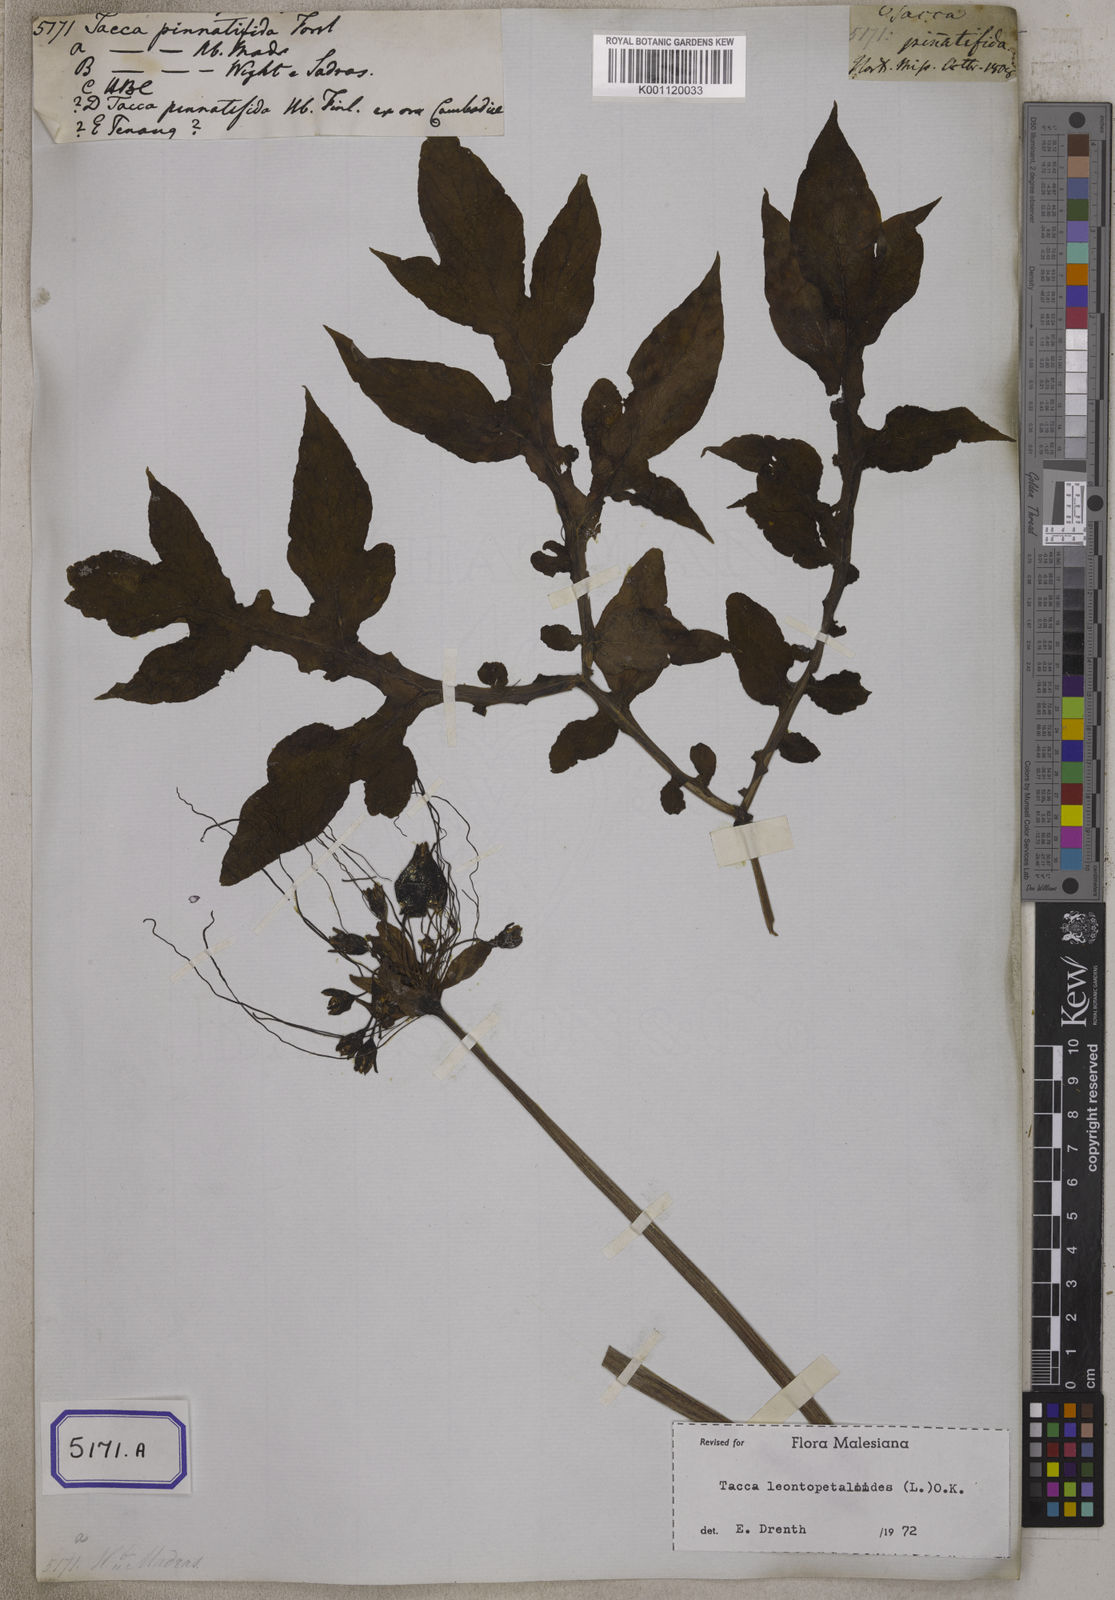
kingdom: Plantae
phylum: Tracheophyta
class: Liliopsida
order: Dioscoreales
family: Dioscoreaceae
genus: Tacca
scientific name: Tacca
